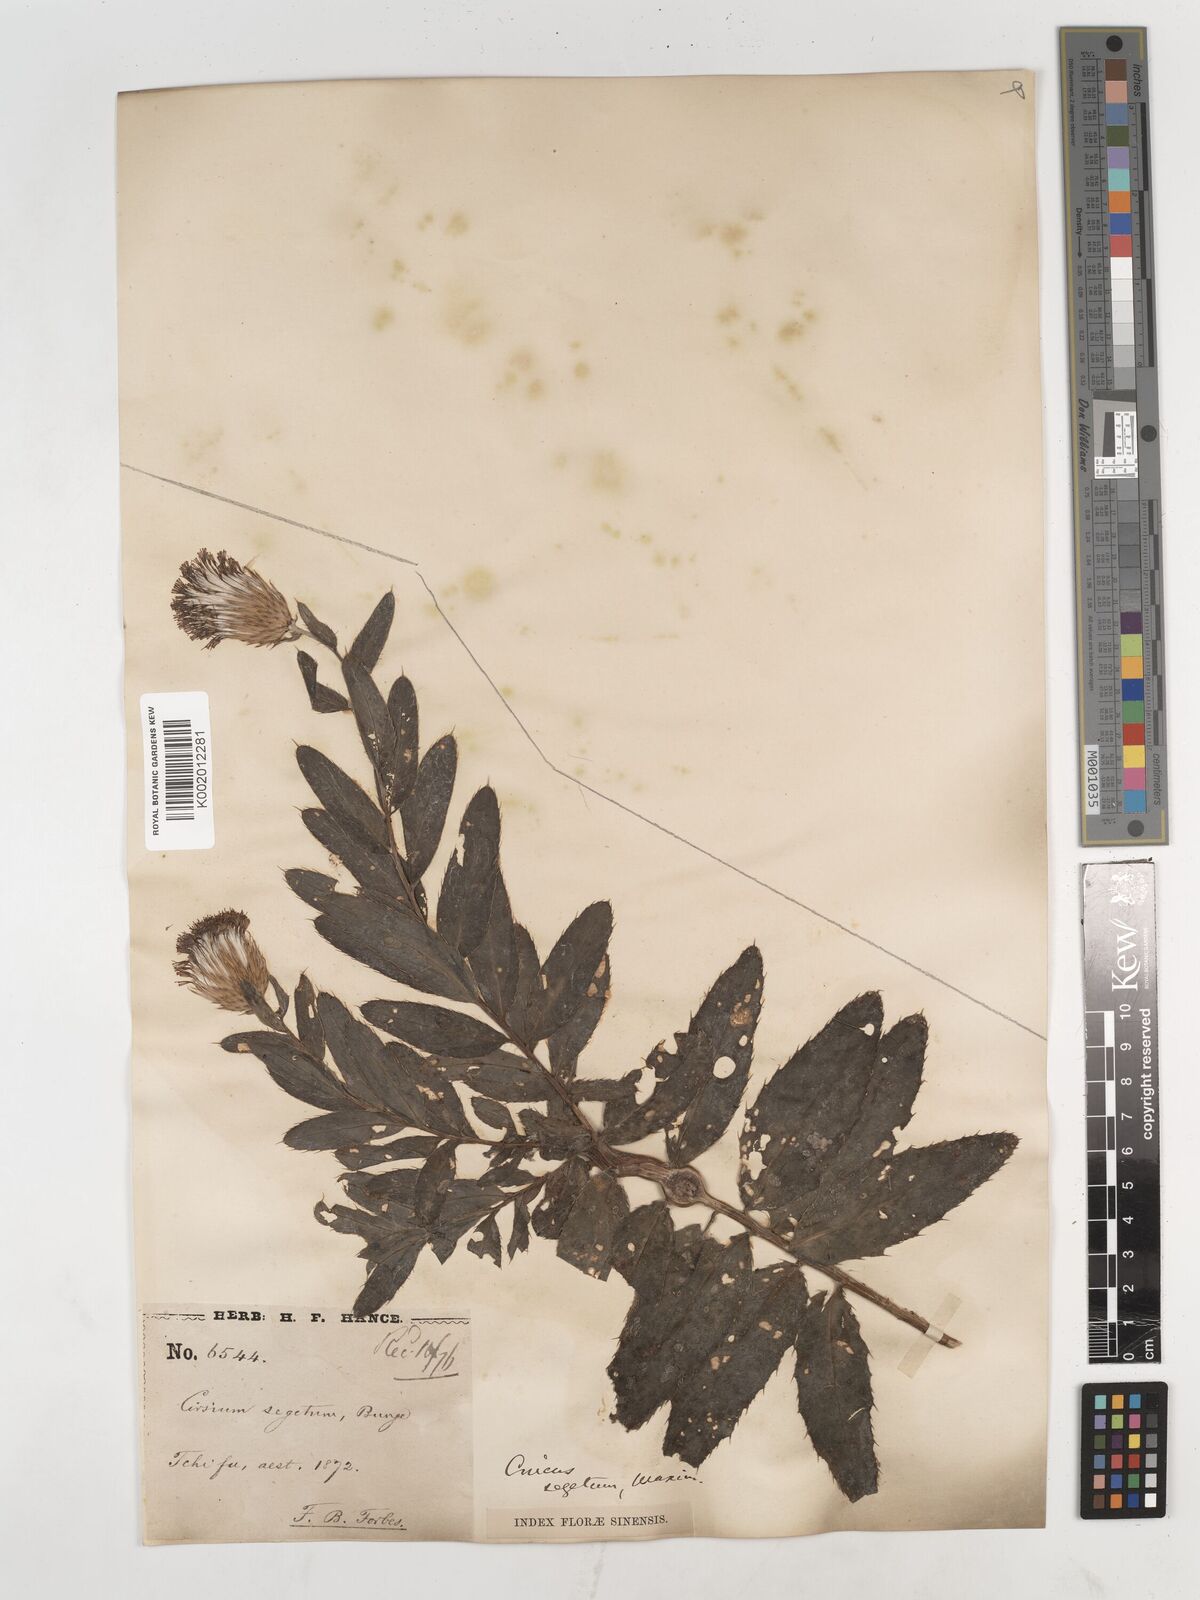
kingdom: Plantae
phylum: Tracheophyta
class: Magnoliopsida
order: Asterales
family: Asteraceae
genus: Cirsium
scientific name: Cirsium arvense
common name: Creeping thistle
